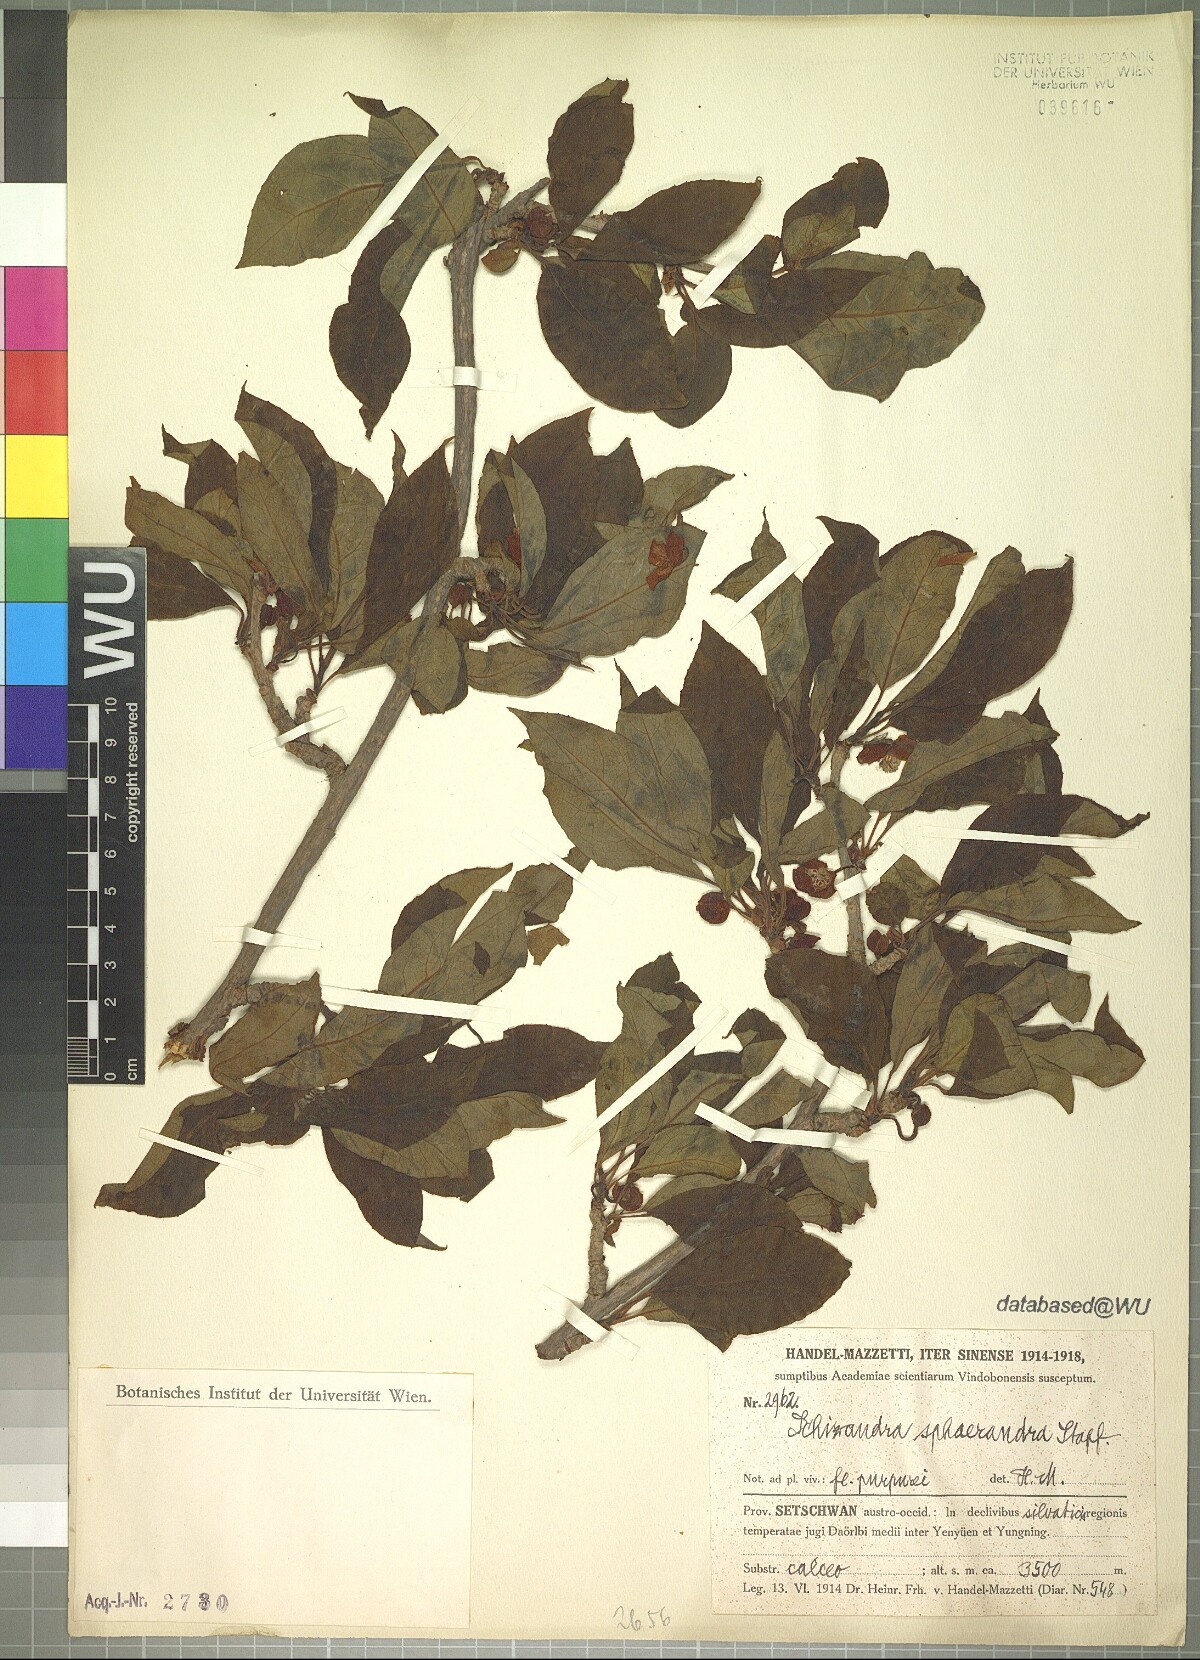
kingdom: Plantae
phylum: Tracheophyta
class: Magnoliopsida
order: Austrobaileyales
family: Schisandraceae
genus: Schisandra
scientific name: Schisandra sphaerandra
